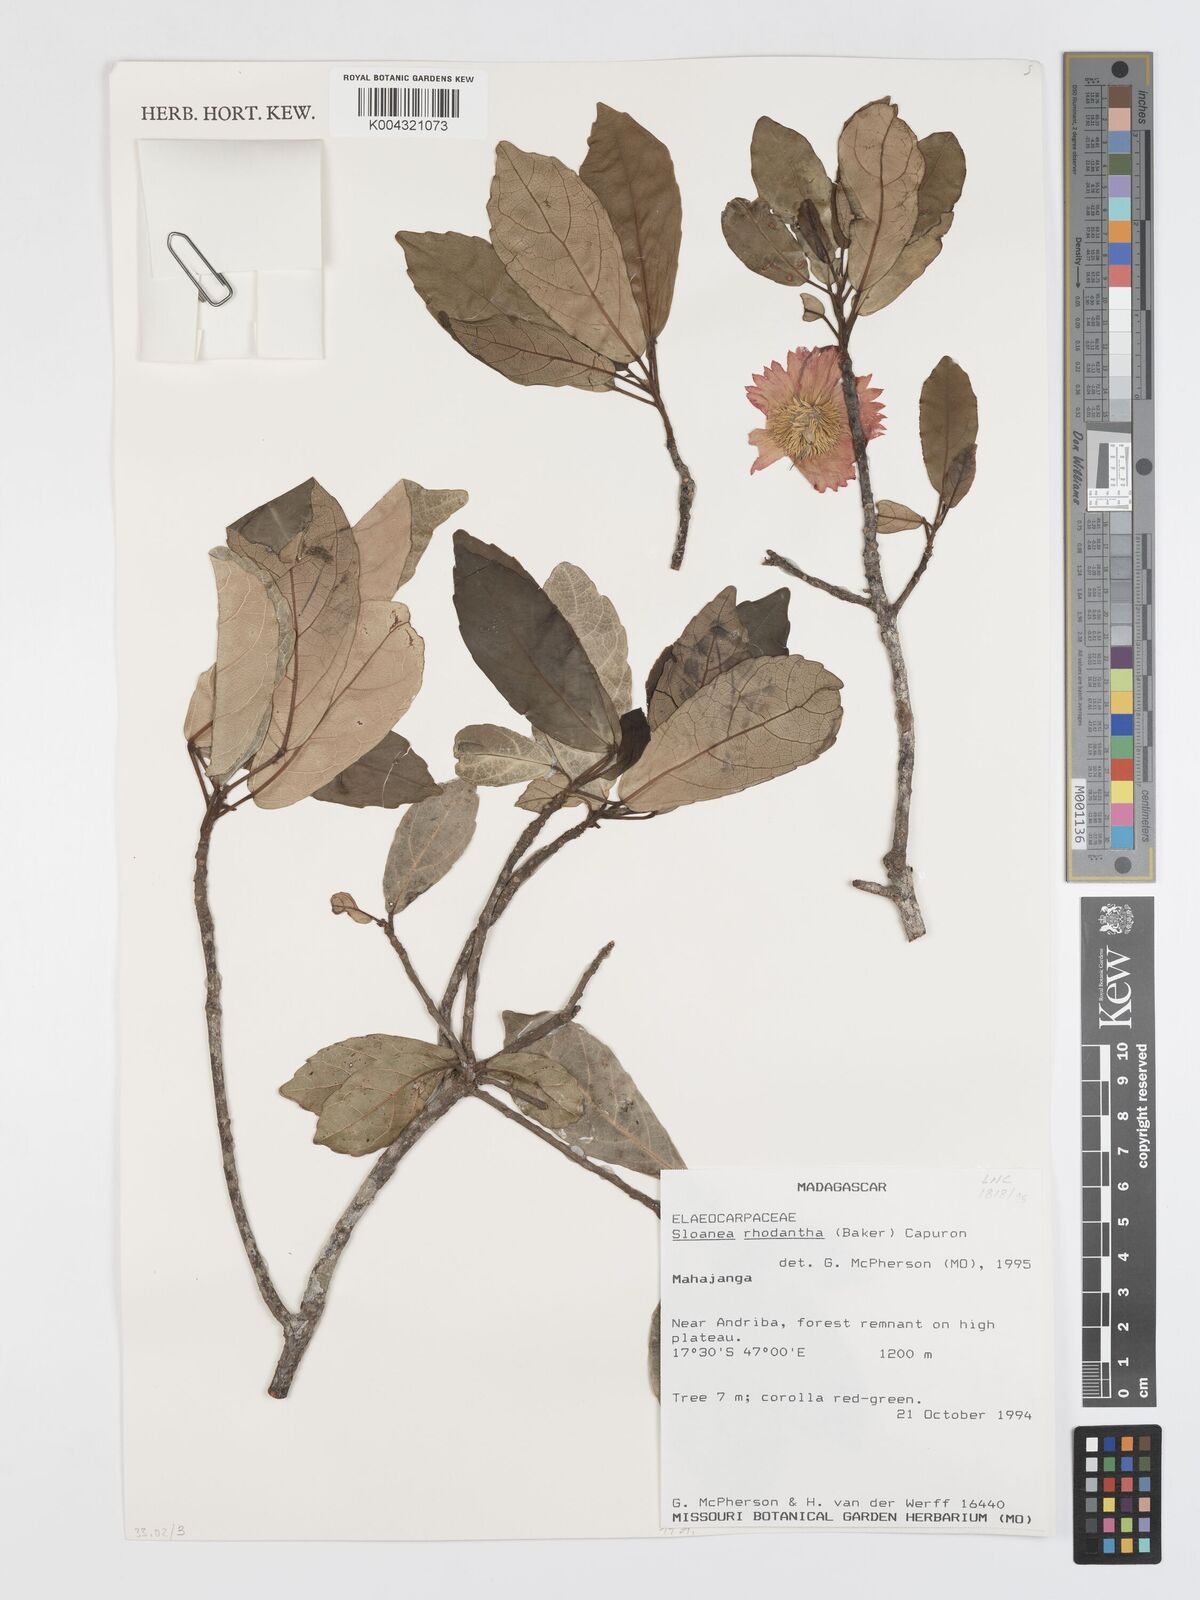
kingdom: Plantae
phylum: Tracheophyta
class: Magnoliopsida
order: Oxalidales
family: Elaeocarpaceae
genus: Sloanea
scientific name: Sloanea rhodantha
